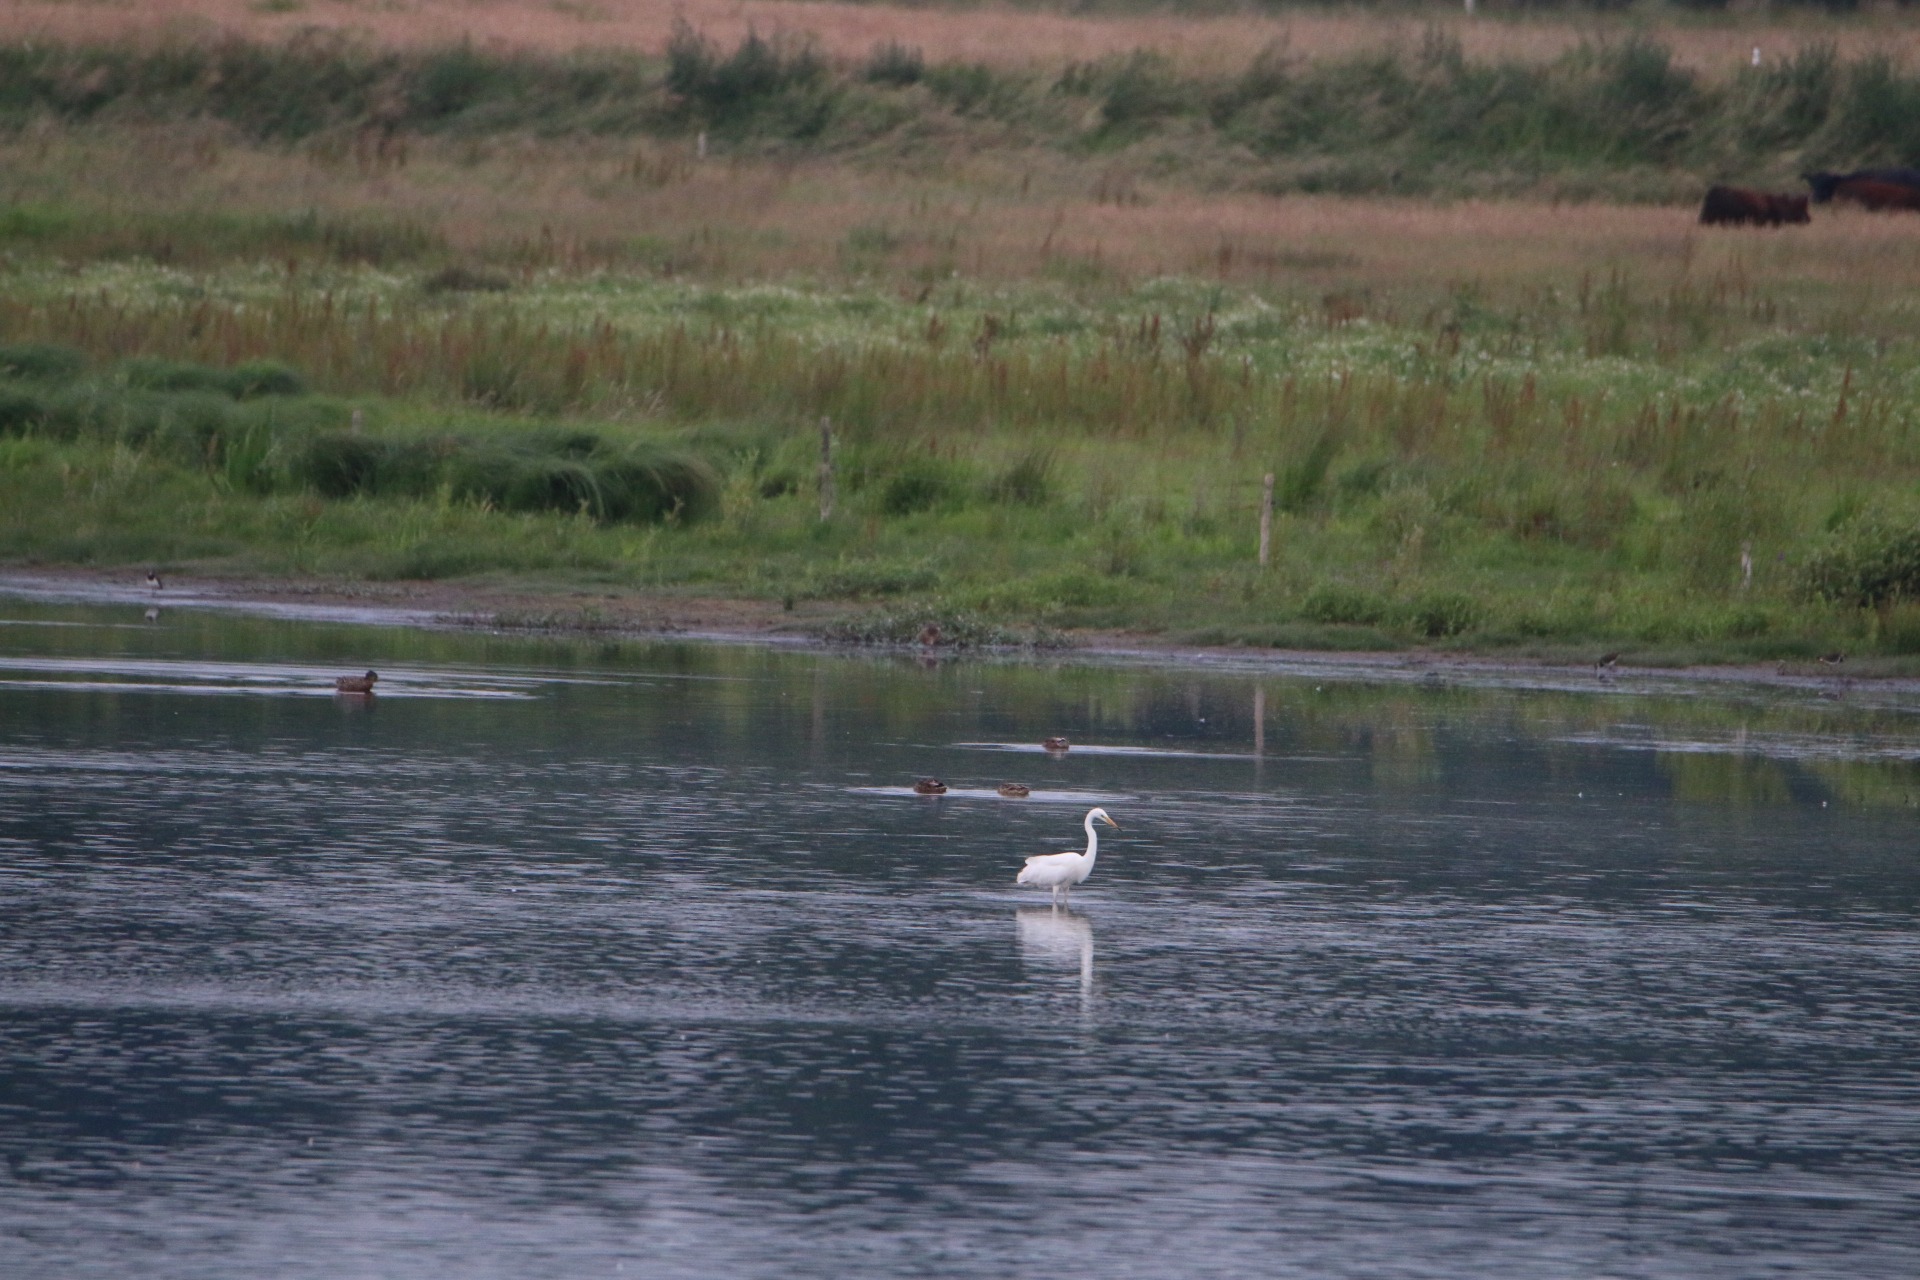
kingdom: Animalia
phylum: Chordata
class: Aves
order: Pelecaniformes
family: Ardeidae
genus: Ardea
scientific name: Ardea alba
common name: Sølvhejre
